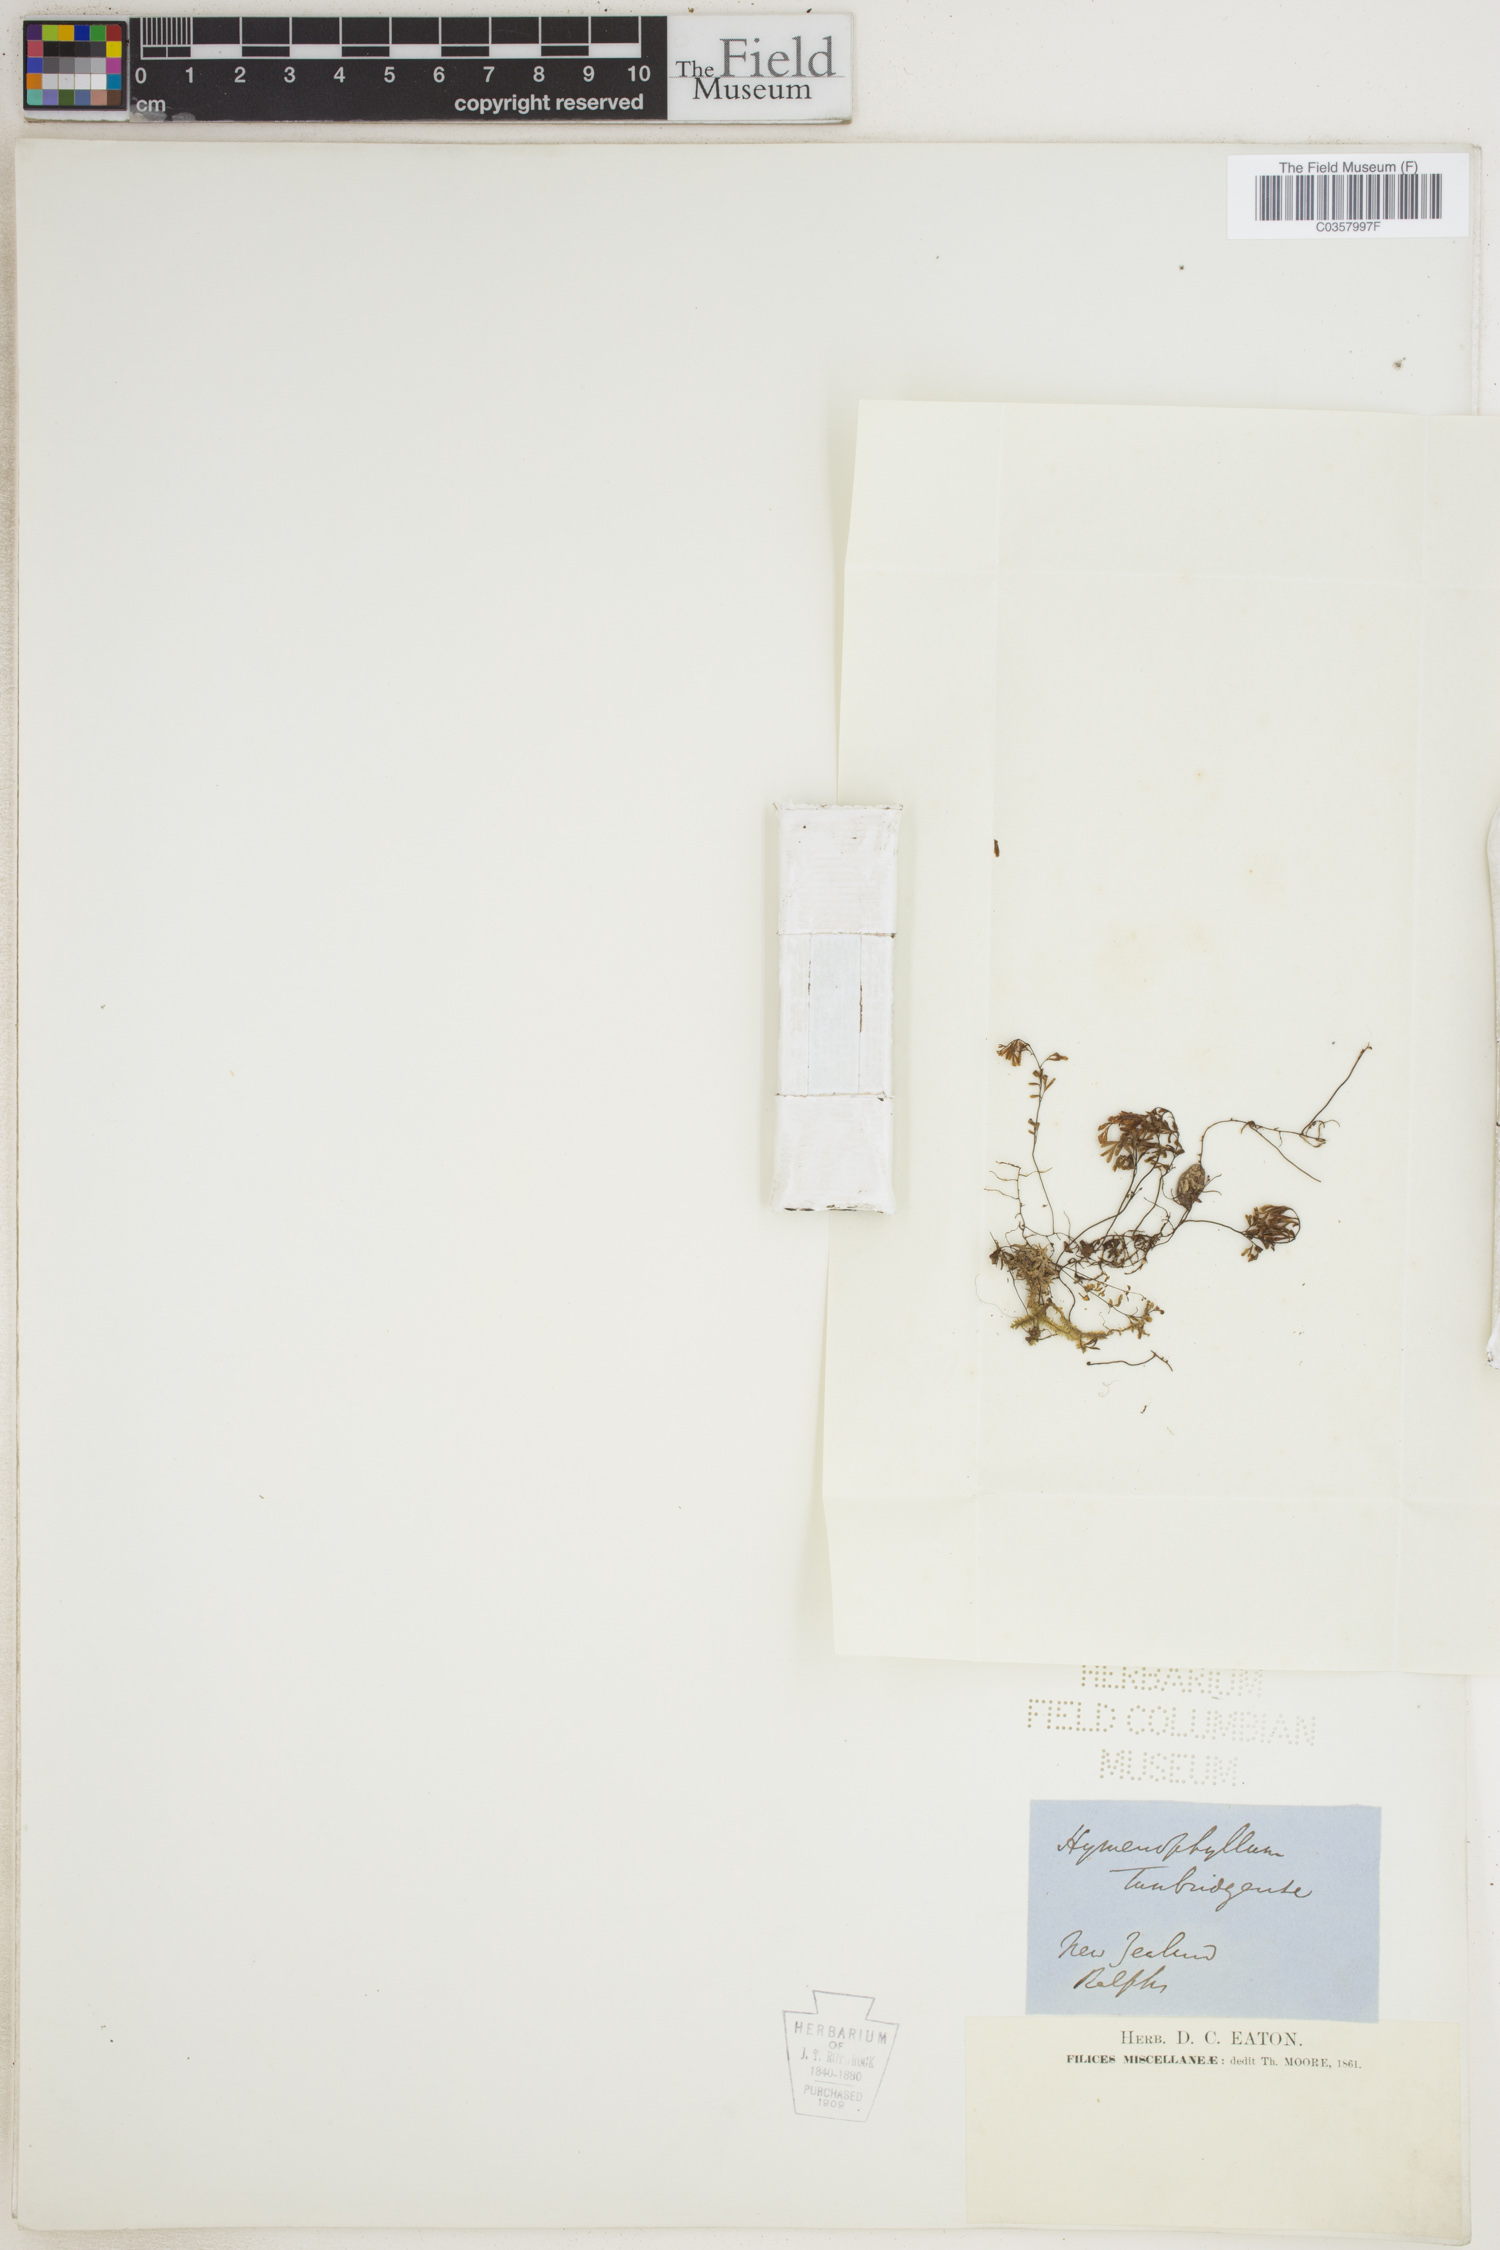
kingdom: Plantae
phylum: Tracheophyta
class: Polypodiopsida
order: Hymenophyllales
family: Hymenophyllaceae
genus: Hymenophyllum
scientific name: Hymenophyllum tunbridgense
